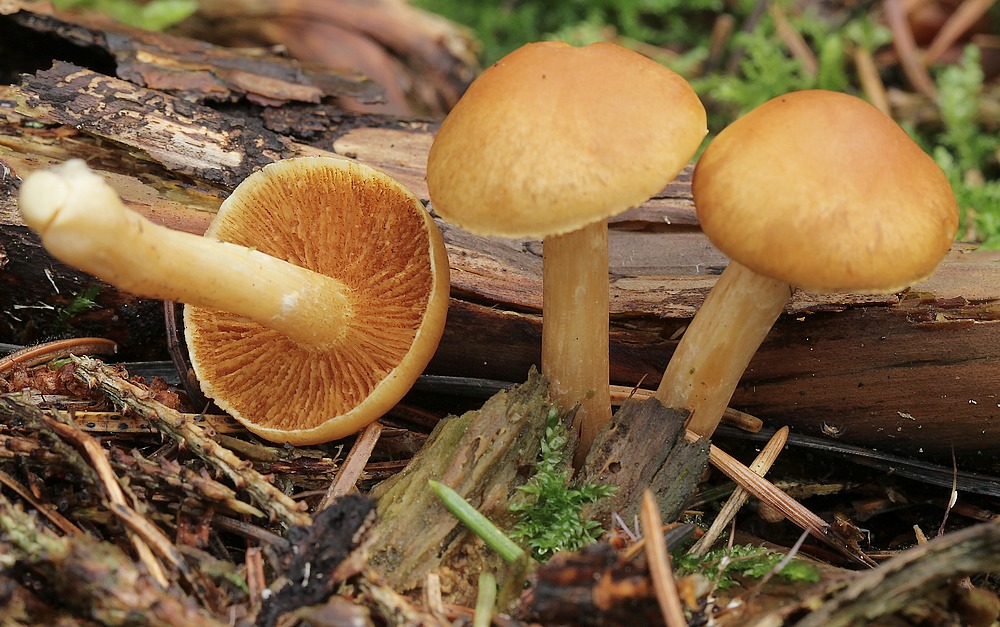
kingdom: Fungi
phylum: Basidiomycota
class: Agaricomycetes
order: Agaricales
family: Hymenogastraceae
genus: Gymnopilus
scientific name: Gymnopilus penetrans
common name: plettet flammehat
